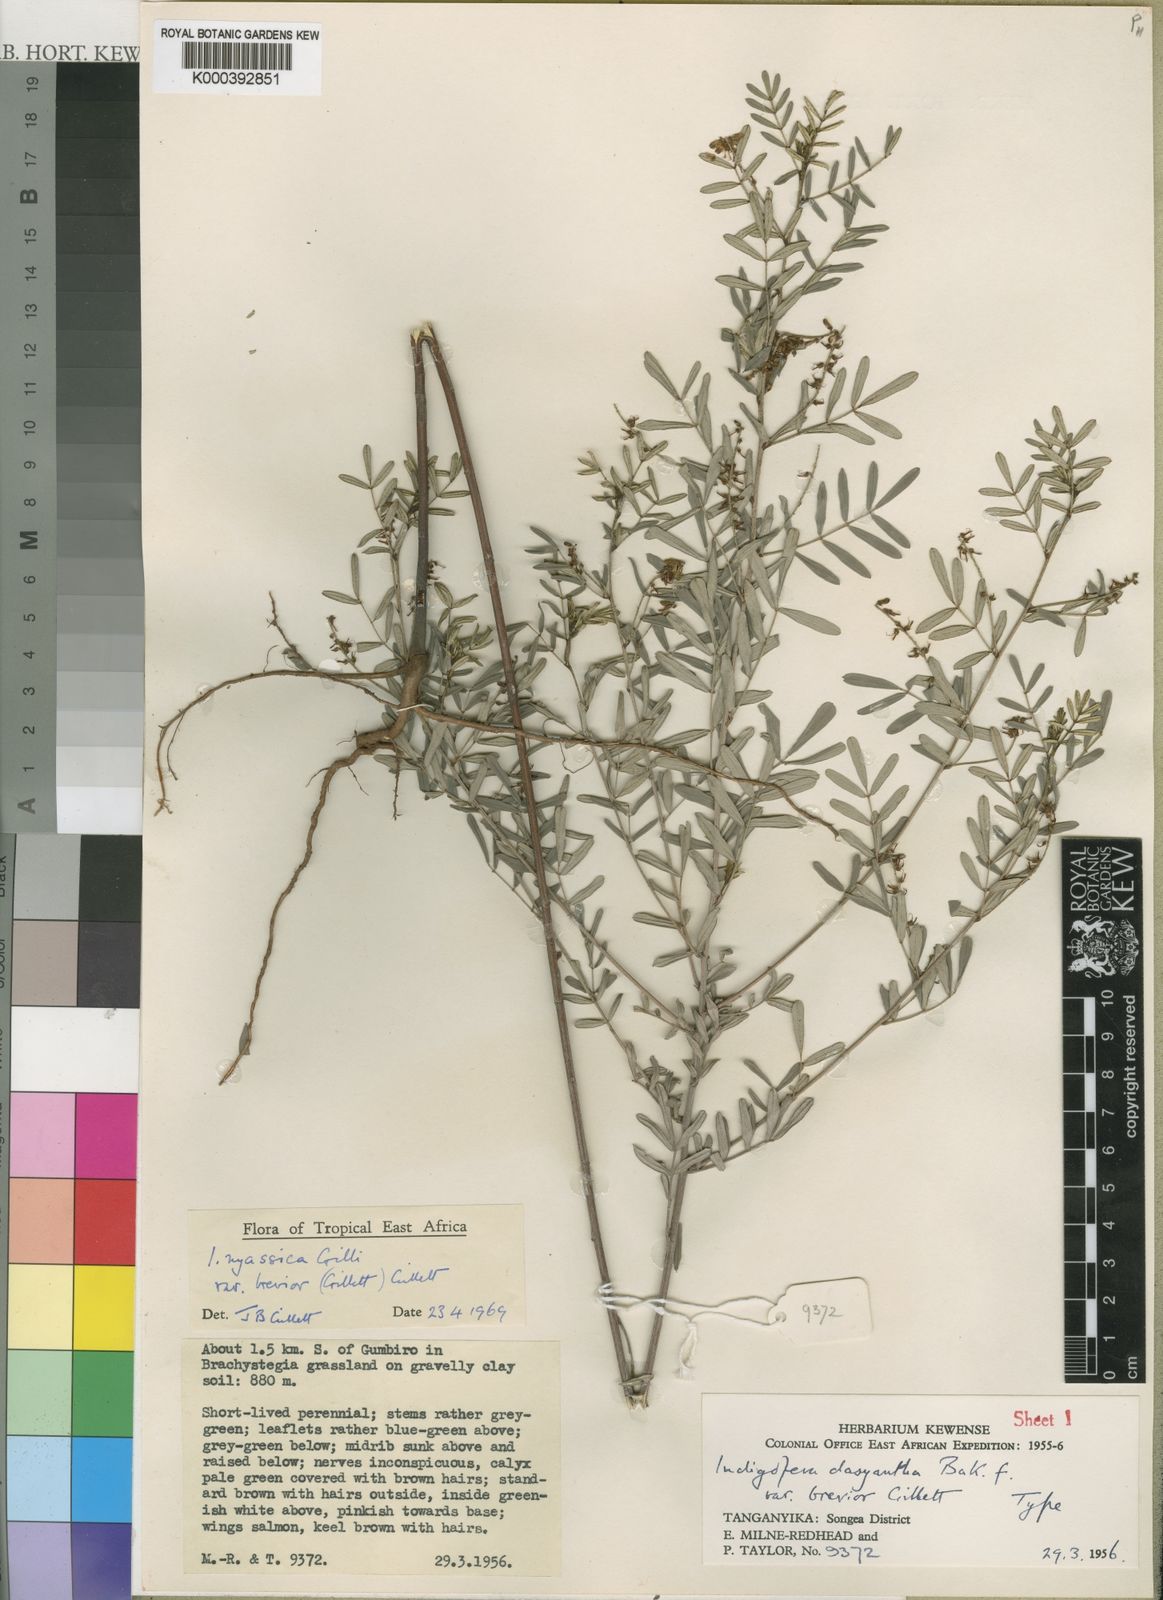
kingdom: Plantae
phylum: Tracheophyta
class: Magnoliopsida
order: Fabales
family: Fabaceae
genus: Indigofera
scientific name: Indigofera dasyantha
